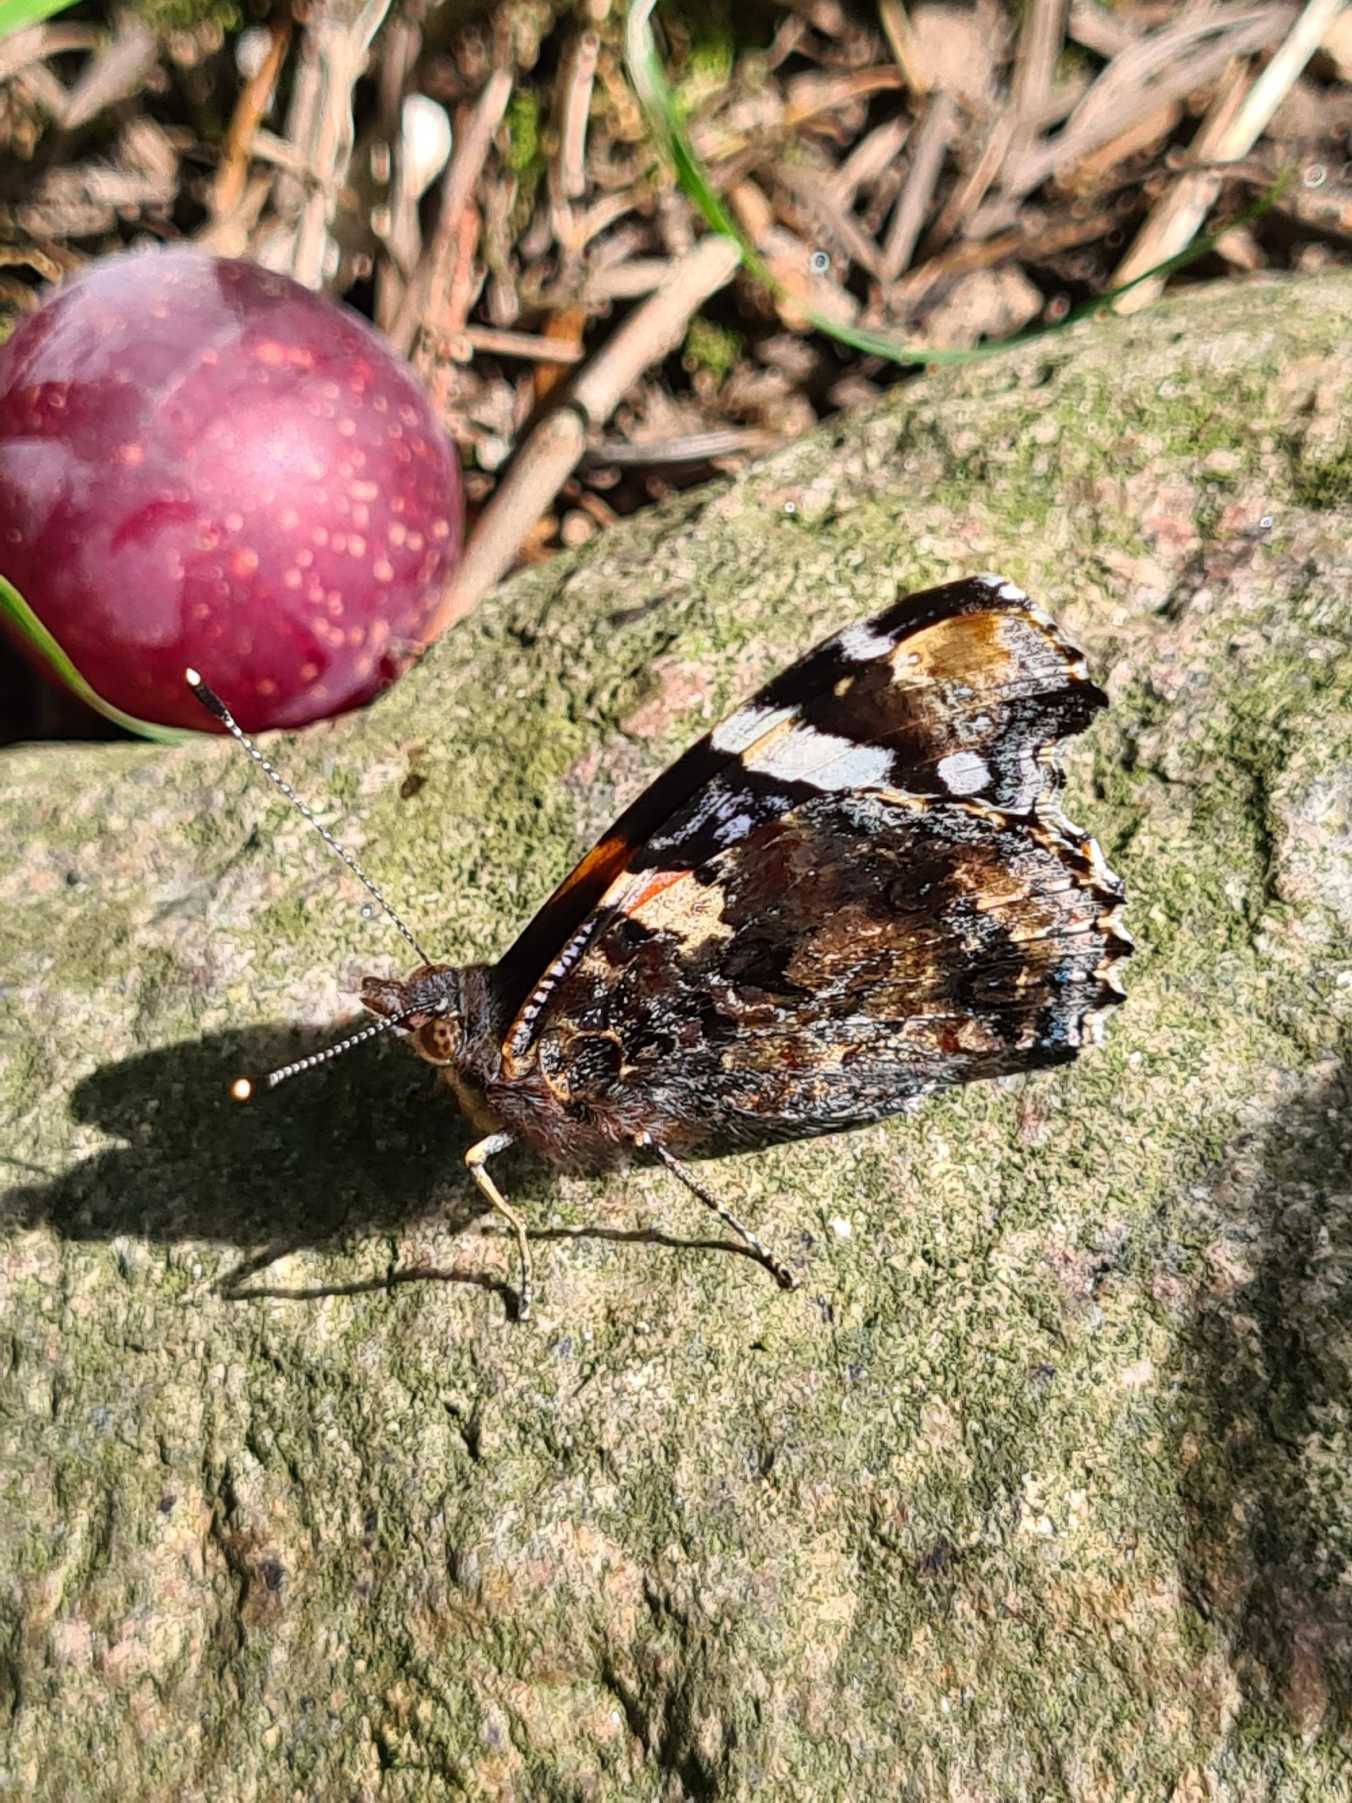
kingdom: Animalia
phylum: Arthropoda
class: Insecta
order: Lepidoptera
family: Nymphalidae
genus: Vanessa
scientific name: Vanessa atalanta
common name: Admiral
